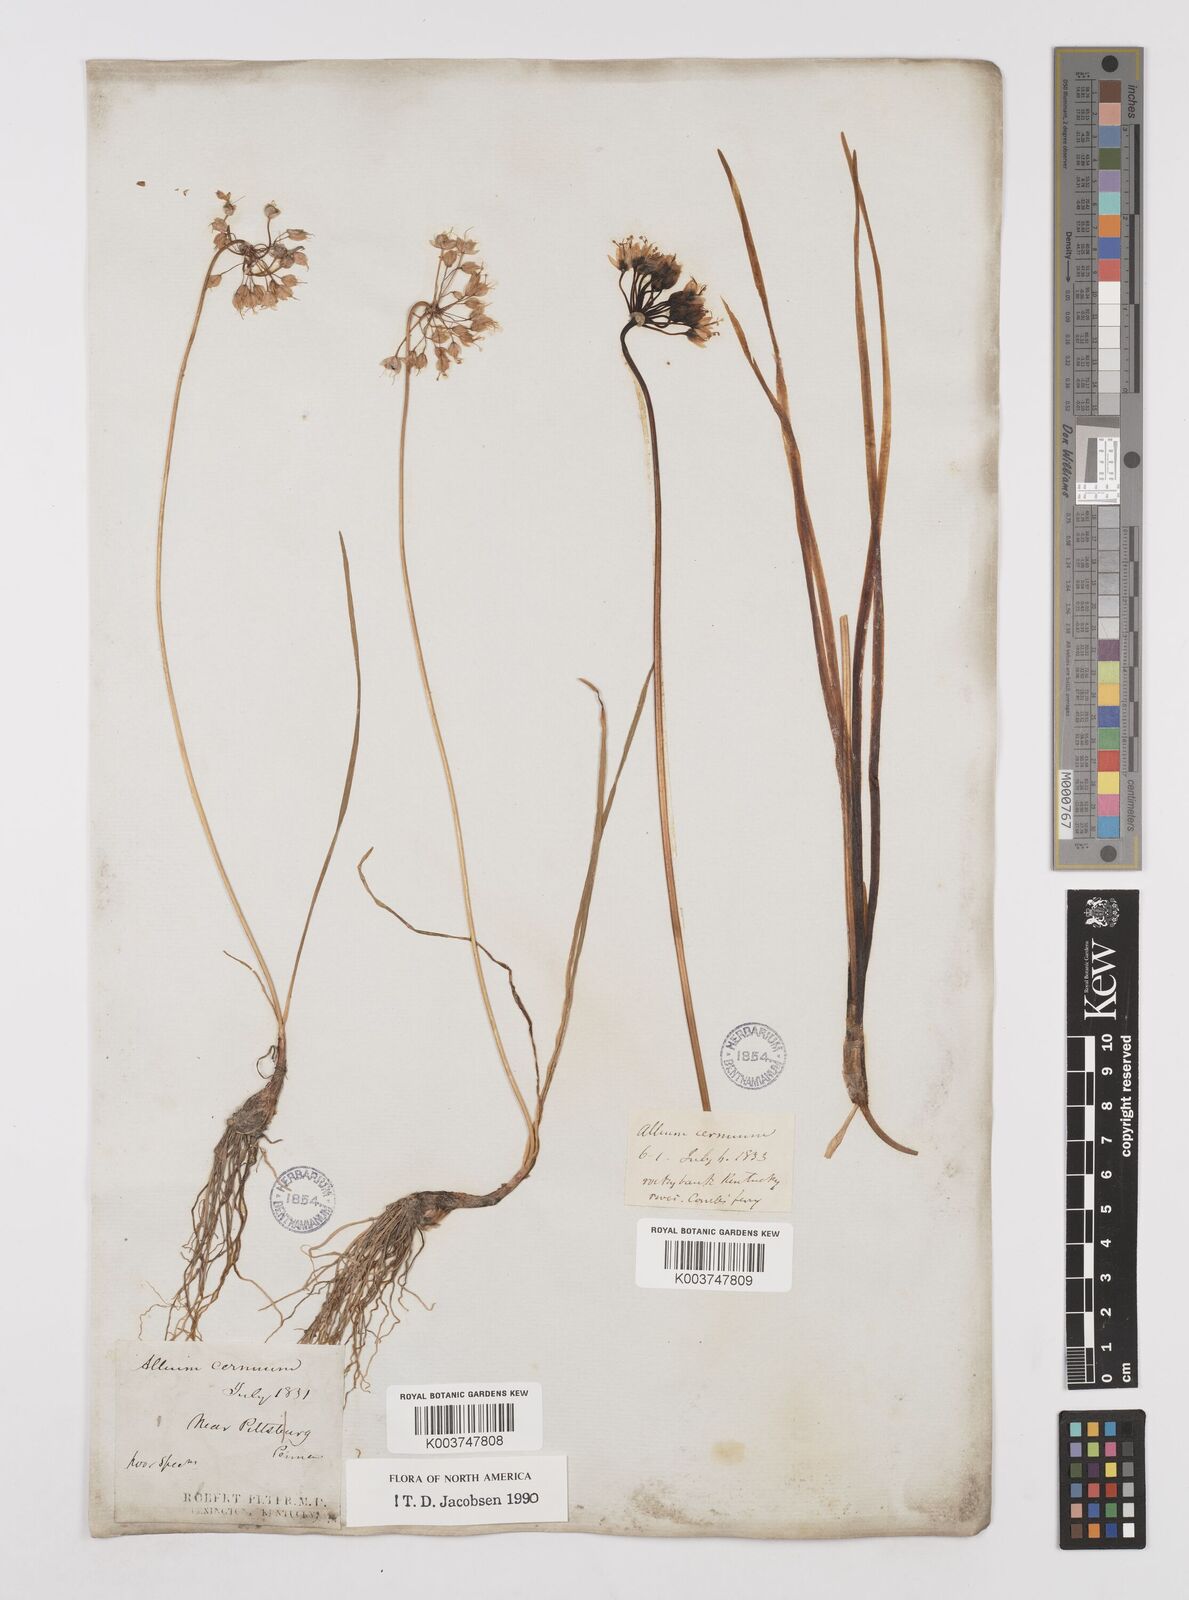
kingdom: Plantae
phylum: Tracheophyta
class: Liliopsida
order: Asparagales
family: Amaryllidaceae
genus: Allium
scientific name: Allium cernuum
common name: Nodding onion
